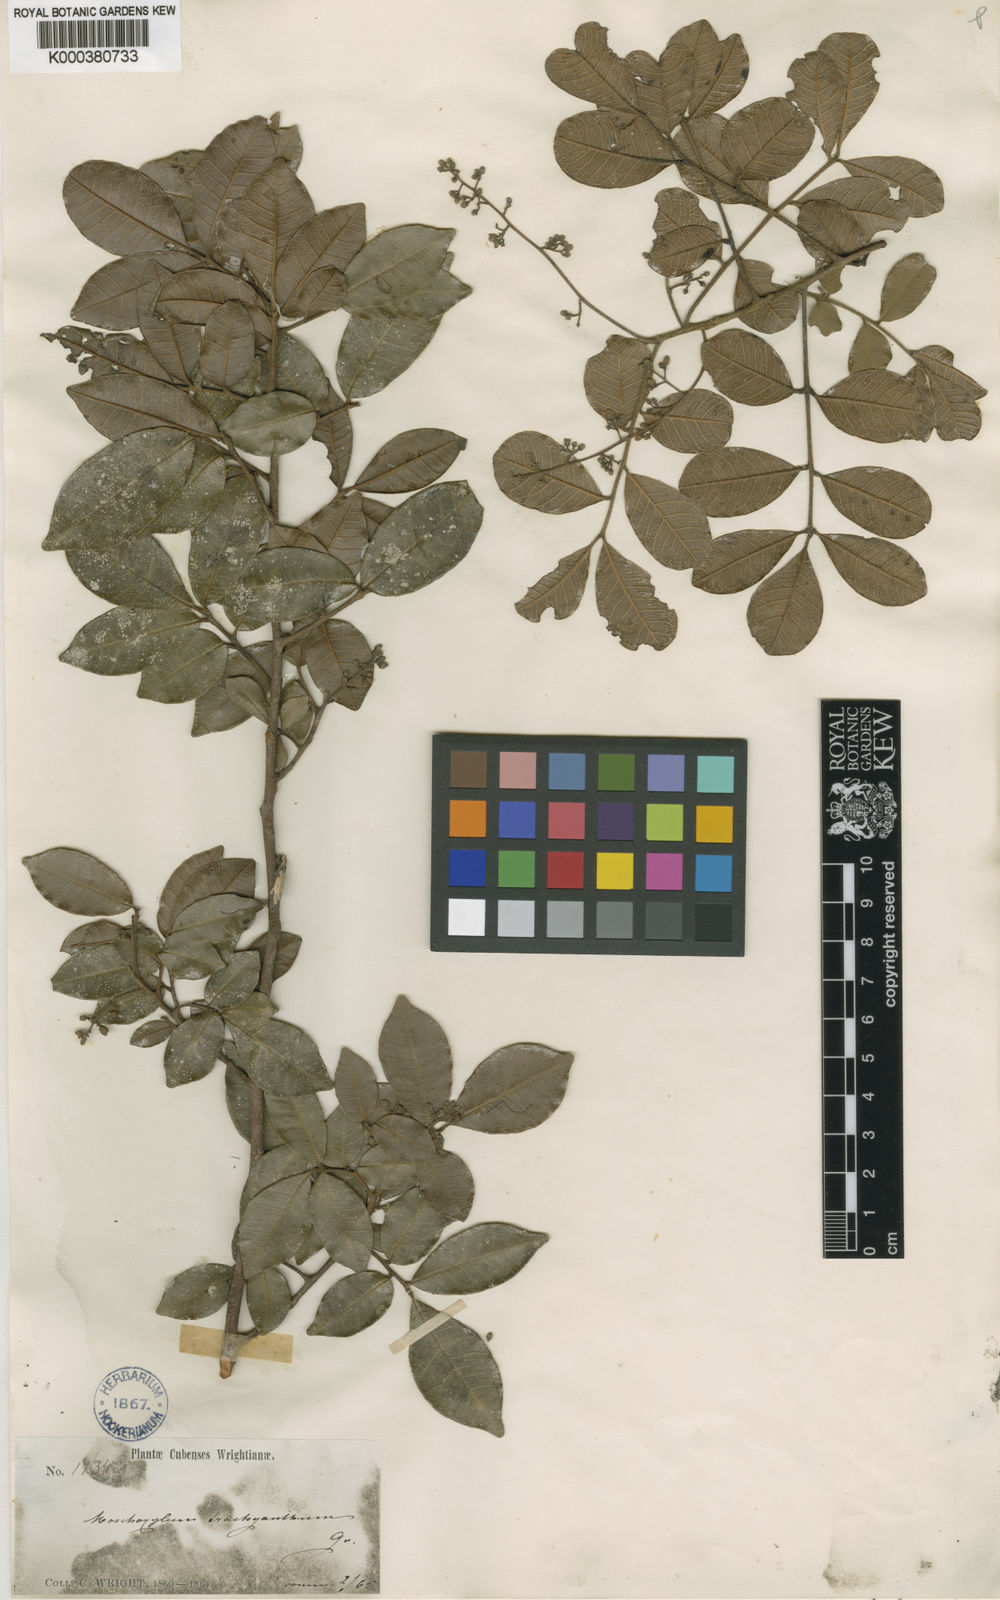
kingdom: Plantae
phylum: Tracheophyta
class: Magnoliopsida
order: Sapindales
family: Meliaceae
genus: Trichilia
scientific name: Trichilia trachyantha
